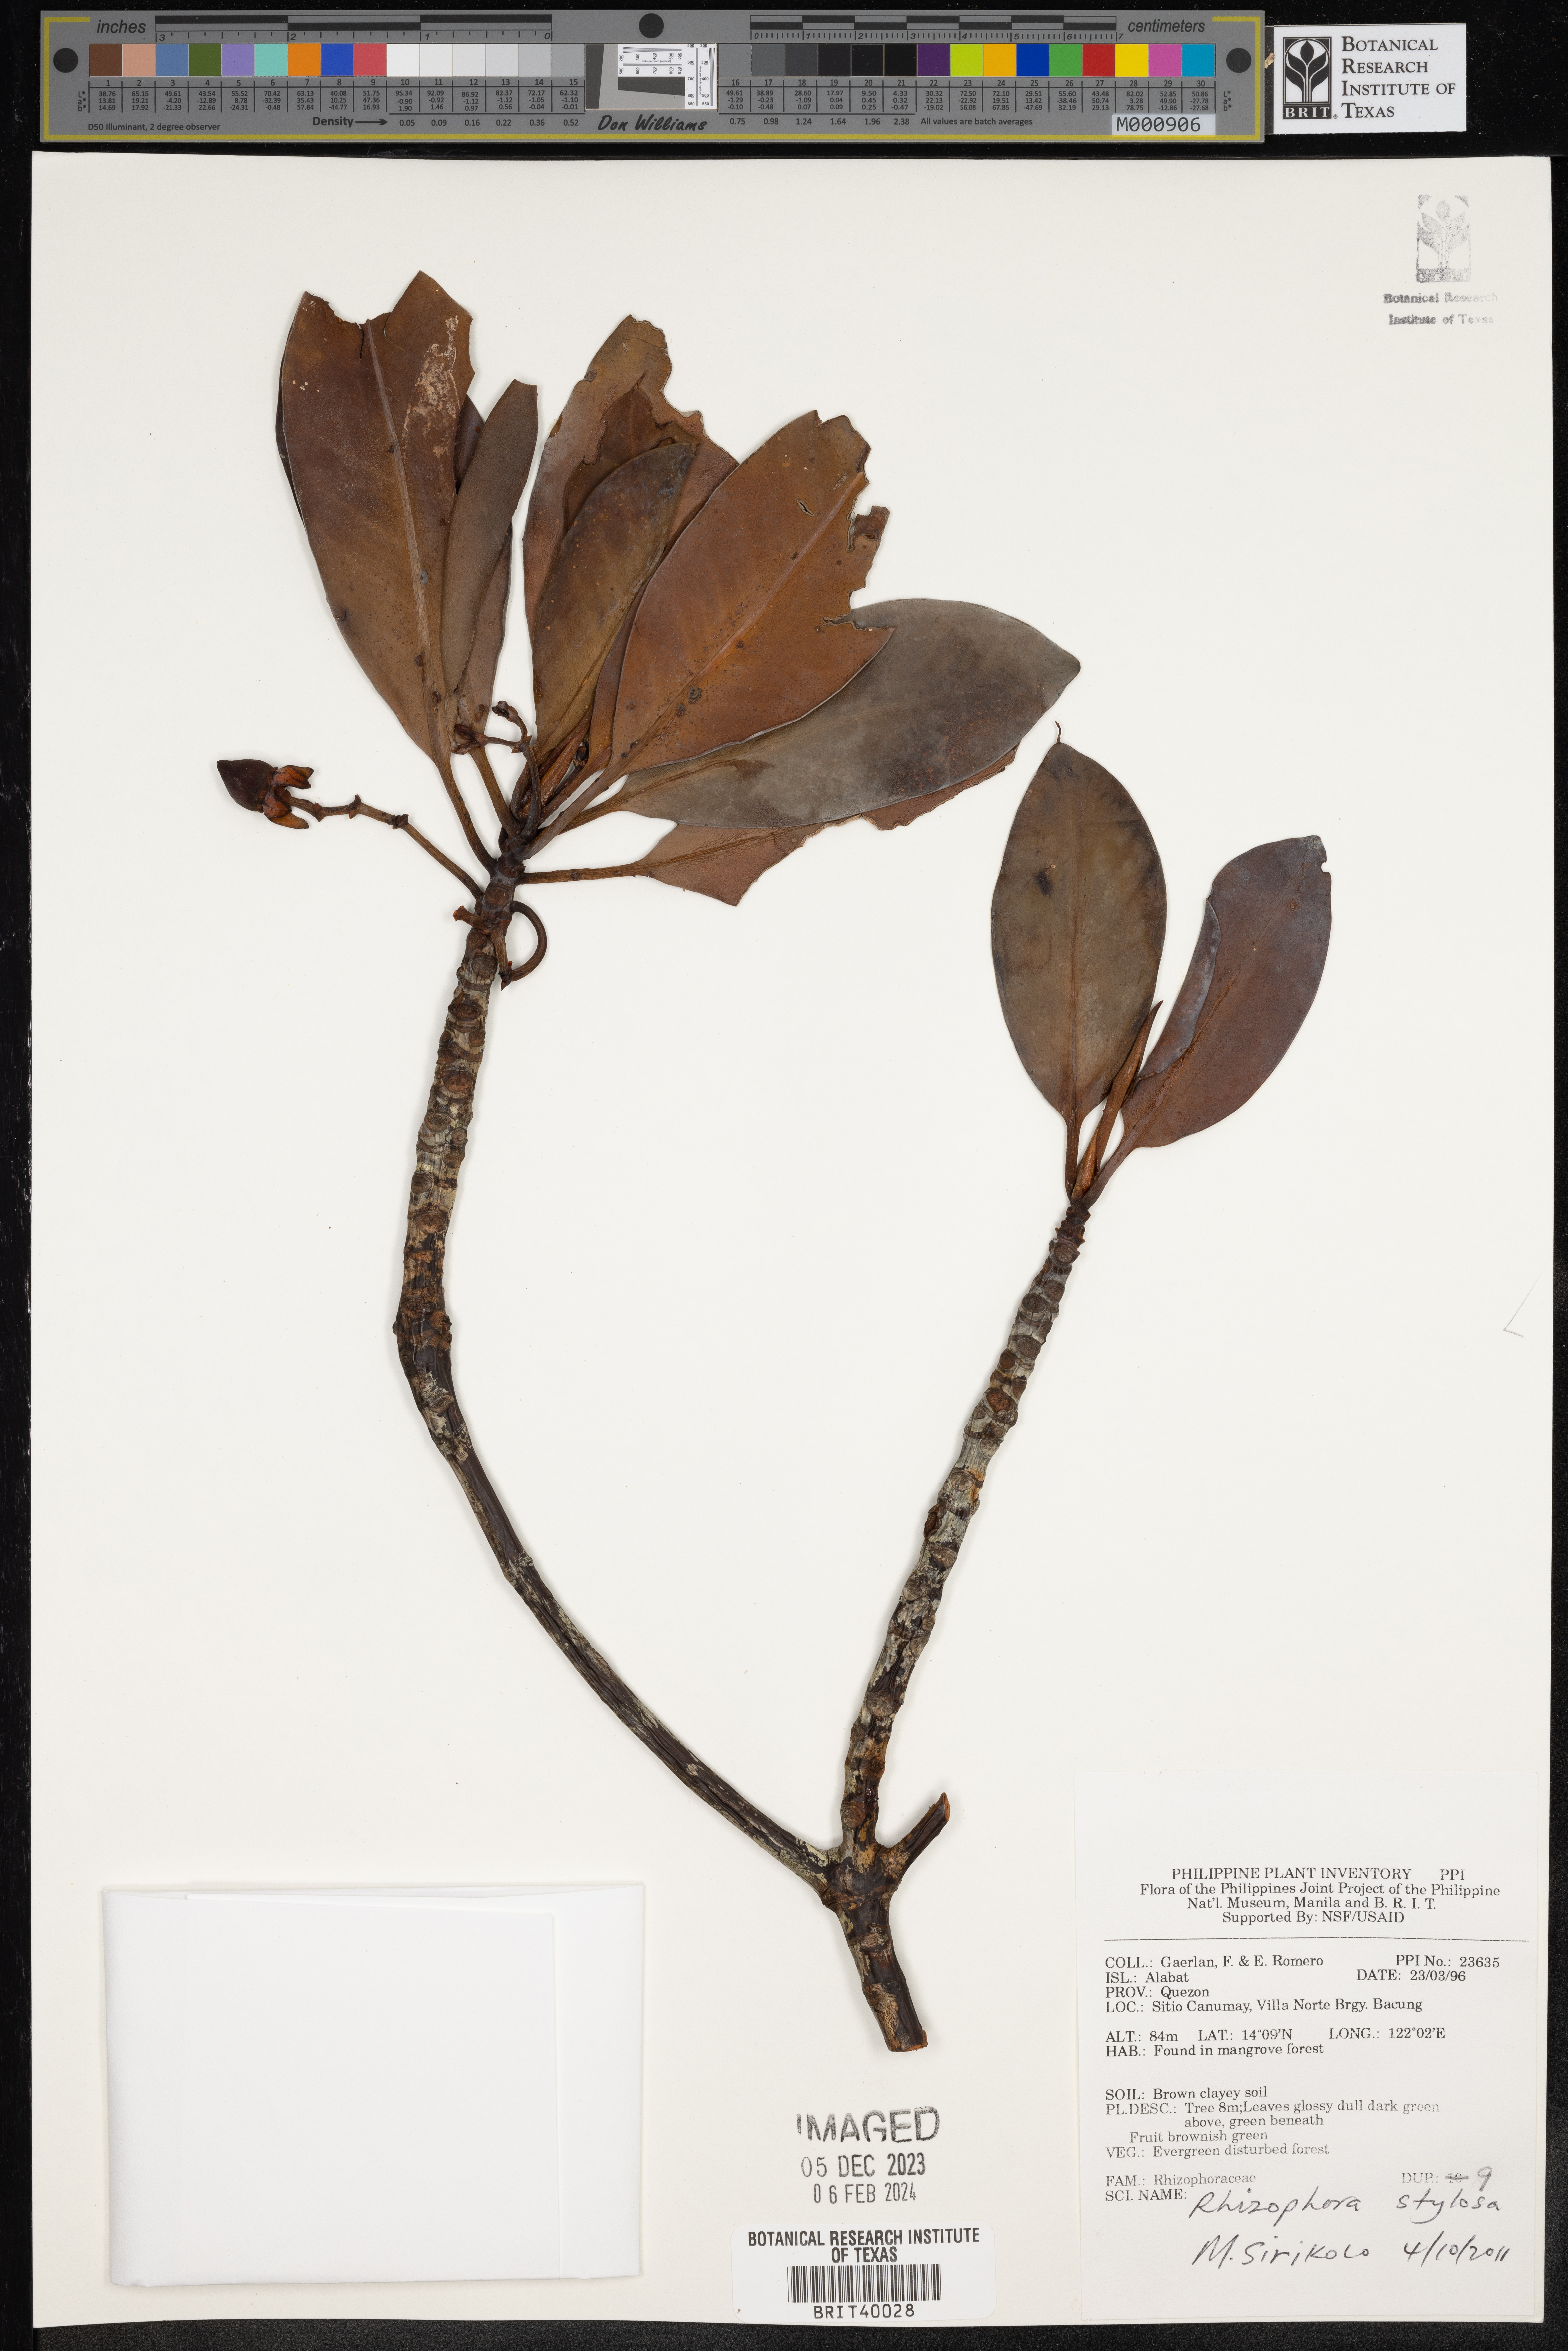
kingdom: Plantae
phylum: Tracheophyta
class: Magnoliopsida
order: Malpighiales
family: Rhizophoraceae
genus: Rhizophora
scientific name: Rhizophora stylosa
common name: Red mangrove
